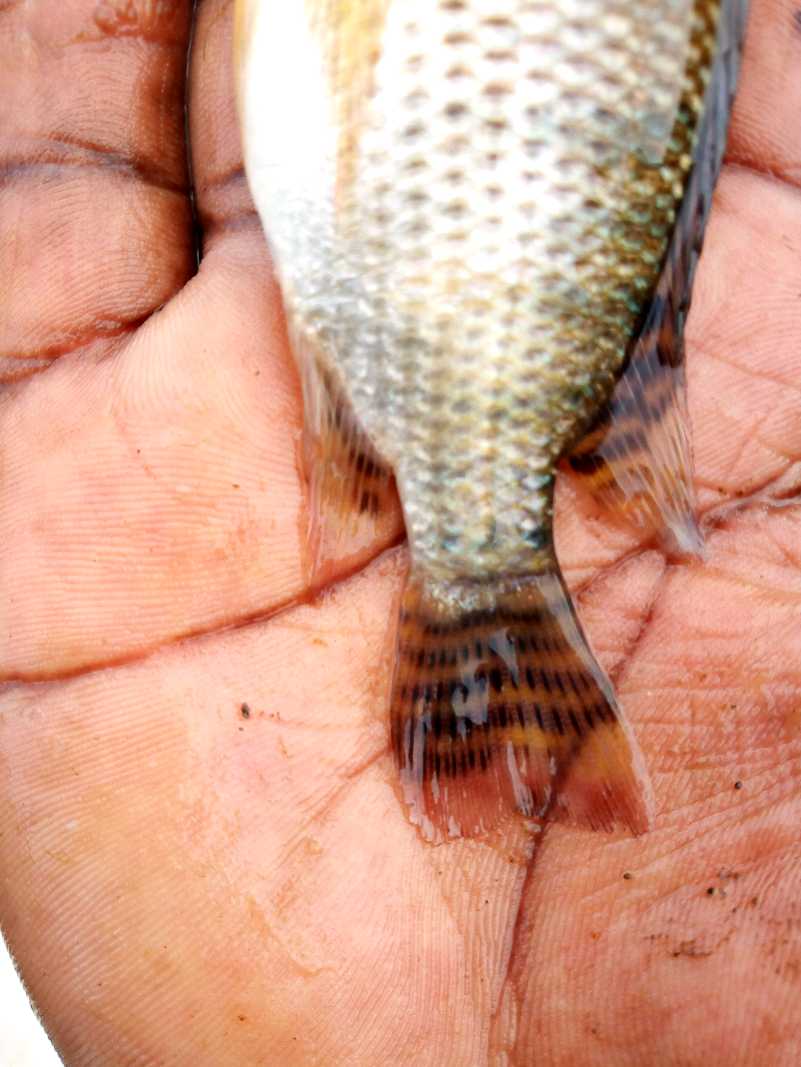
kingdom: Animalia
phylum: Chordata
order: Perciformes
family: Cichlidae
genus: Oreochromis
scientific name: Oreochromis niloticus
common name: Nile tilapia
